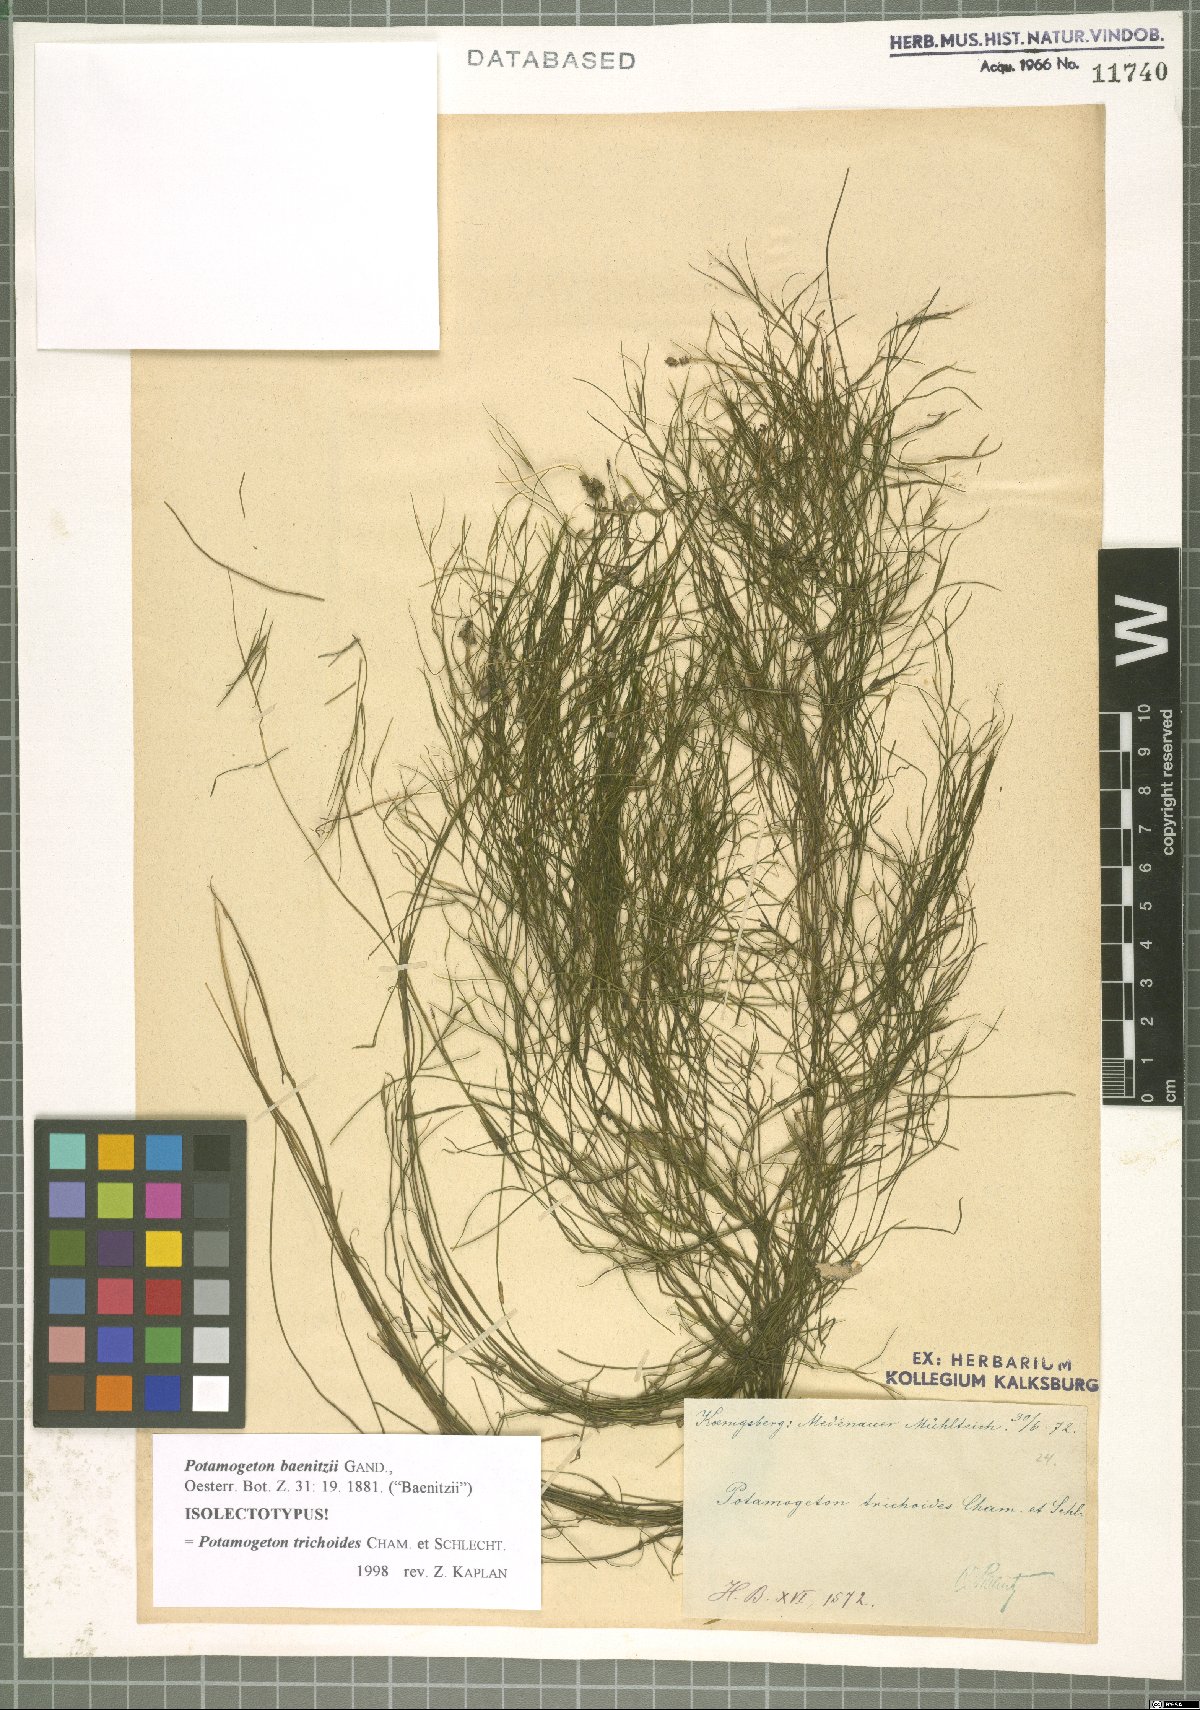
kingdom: Plantae
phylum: Tracheophyta
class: Liliopsida
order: Alismatales
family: Potamogetonaceae
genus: Potamogeton
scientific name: Potamogeton trichoides
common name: Hairlike pondweed
